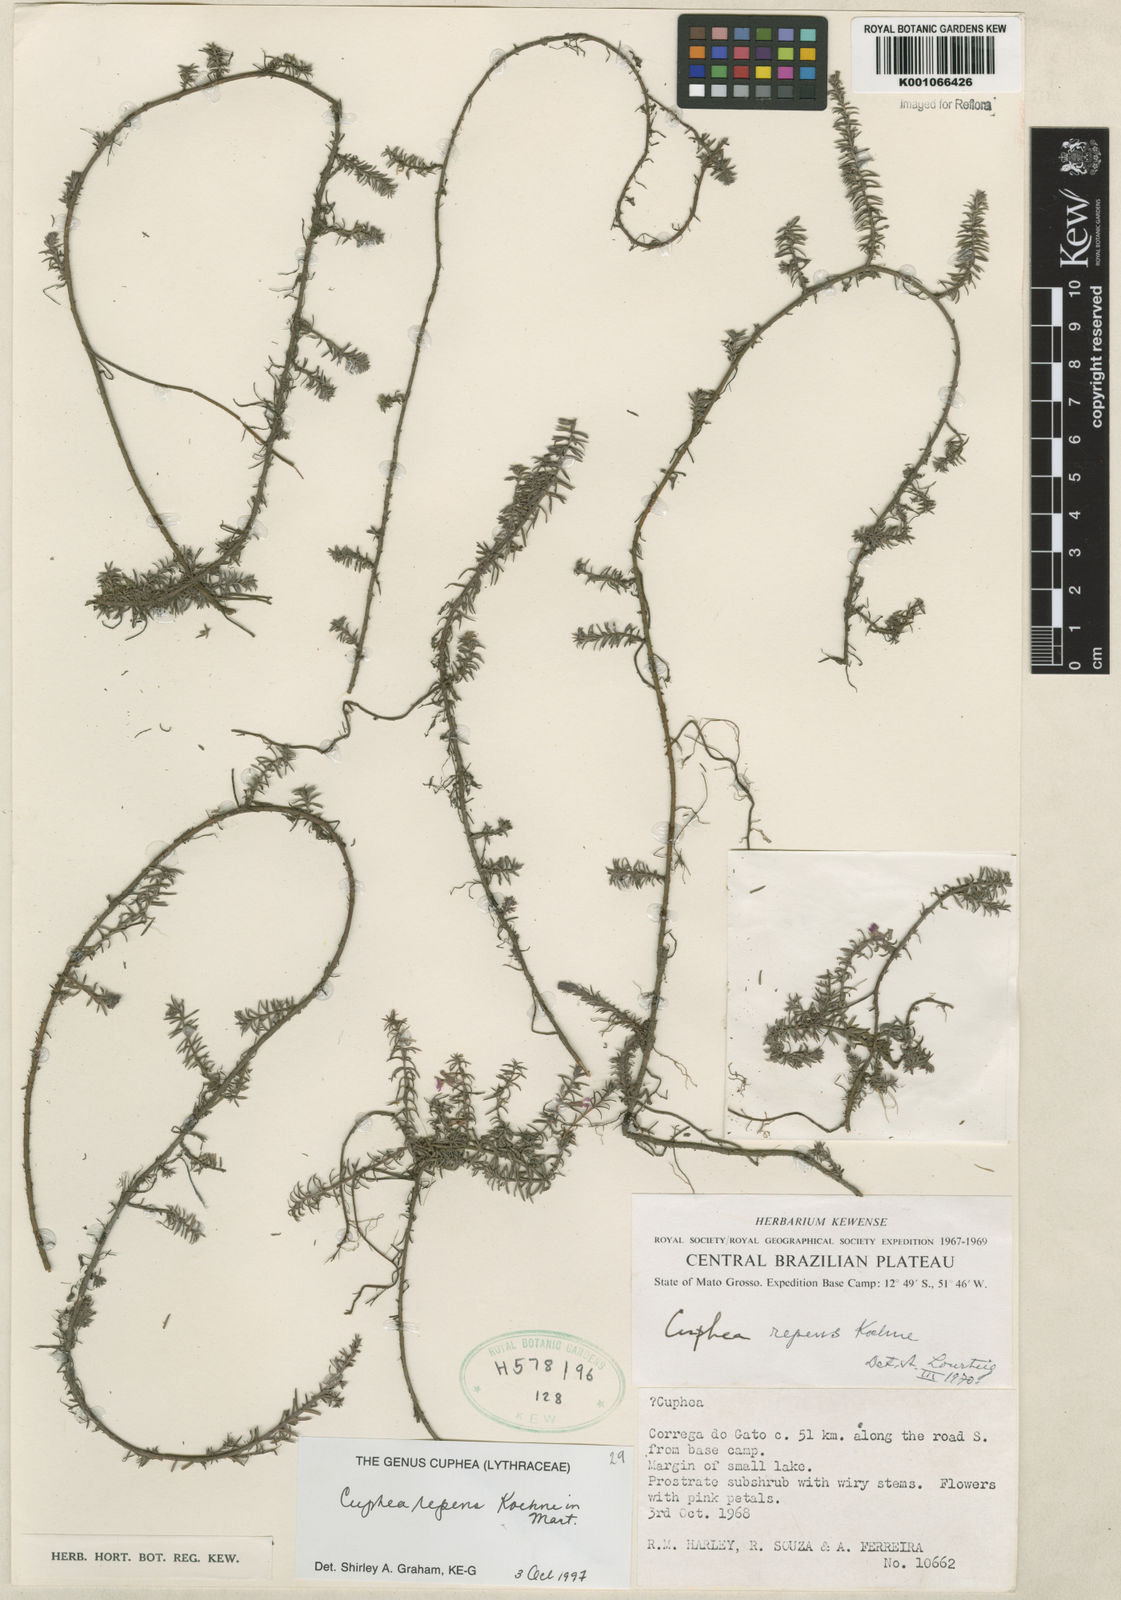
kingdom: Plantae
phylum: Tracheophyta
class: Magnoliopsida
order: Myrtales
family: Lythraceae
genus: Cuphea
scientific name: Cuphea repens
